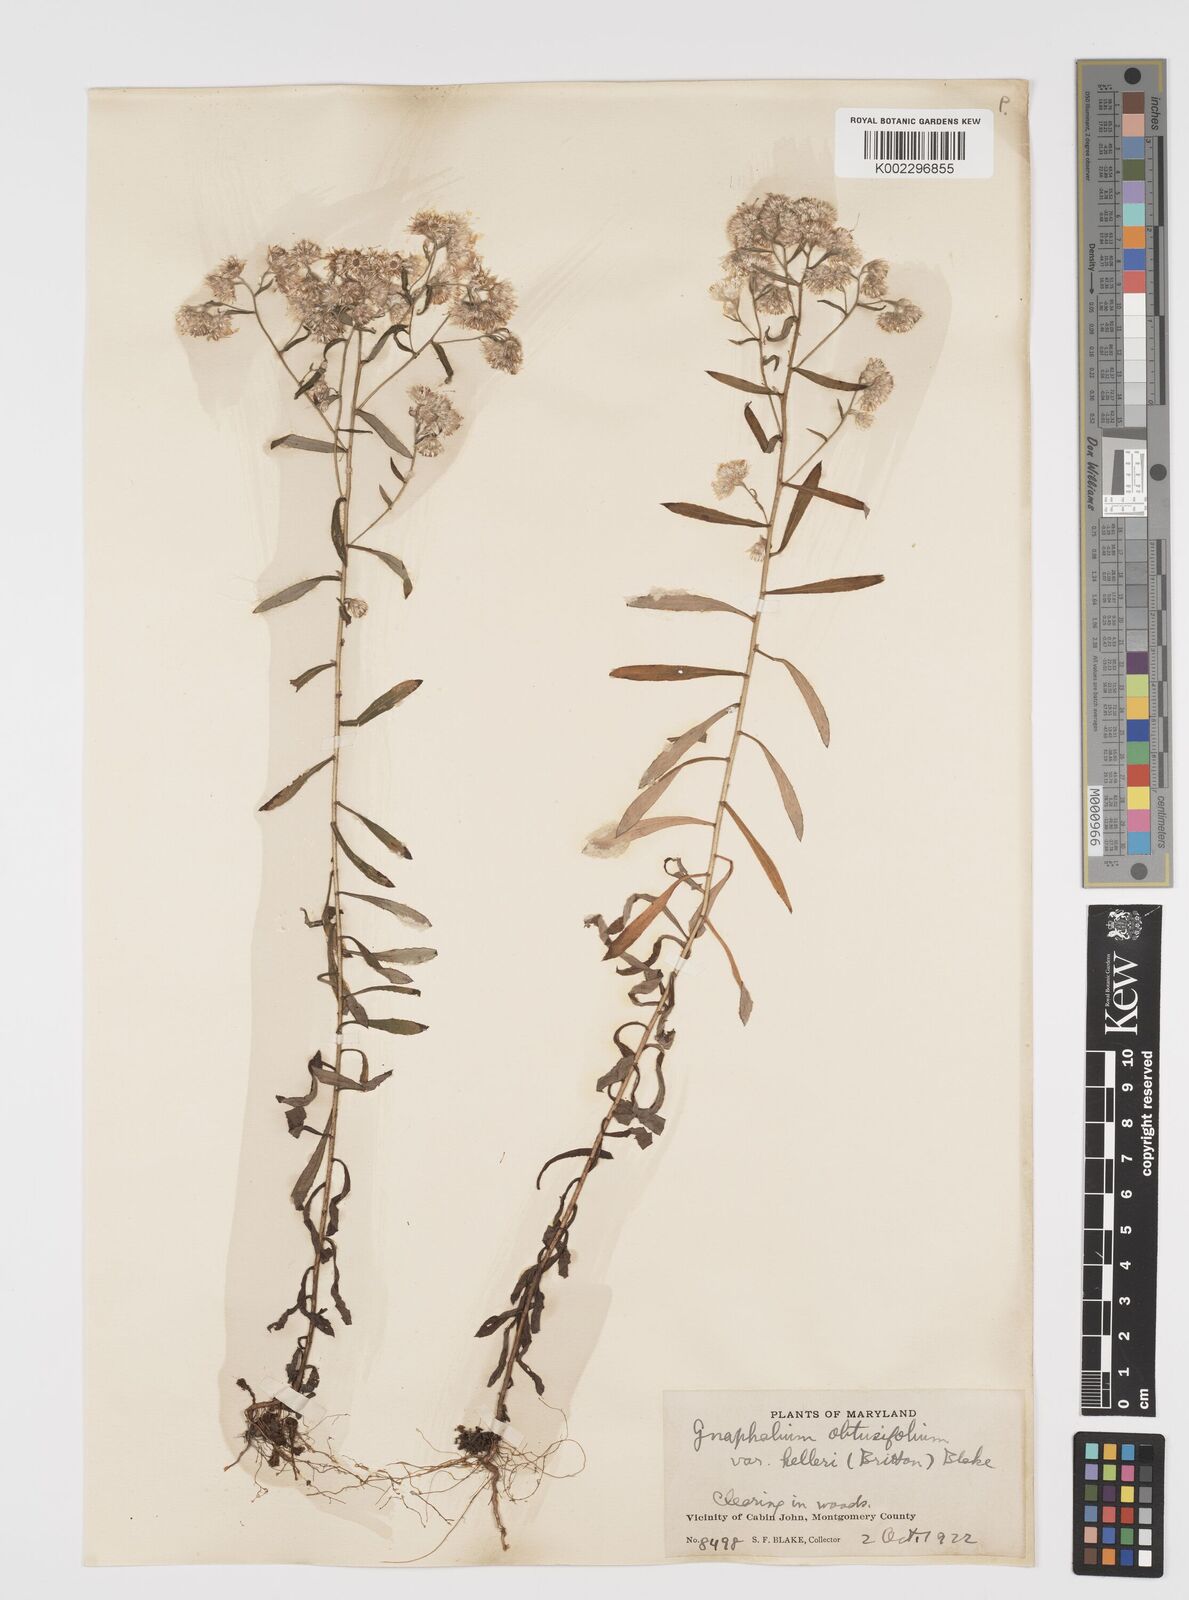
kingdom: Plantae
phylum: Tracheophyta
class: Magnoliopsida
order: Asterales
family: Asteraceae
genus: Pseudognaphalium
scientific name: Pseudognaphalium helleri
